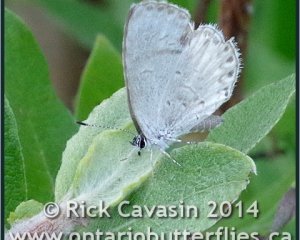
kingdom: Animalia
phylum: Arthropoda
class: Insecta
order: Lepidoptera
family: Lycaenidae
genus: Cyaniris
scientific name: Cyaniris neglecta
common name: Summer Azure
